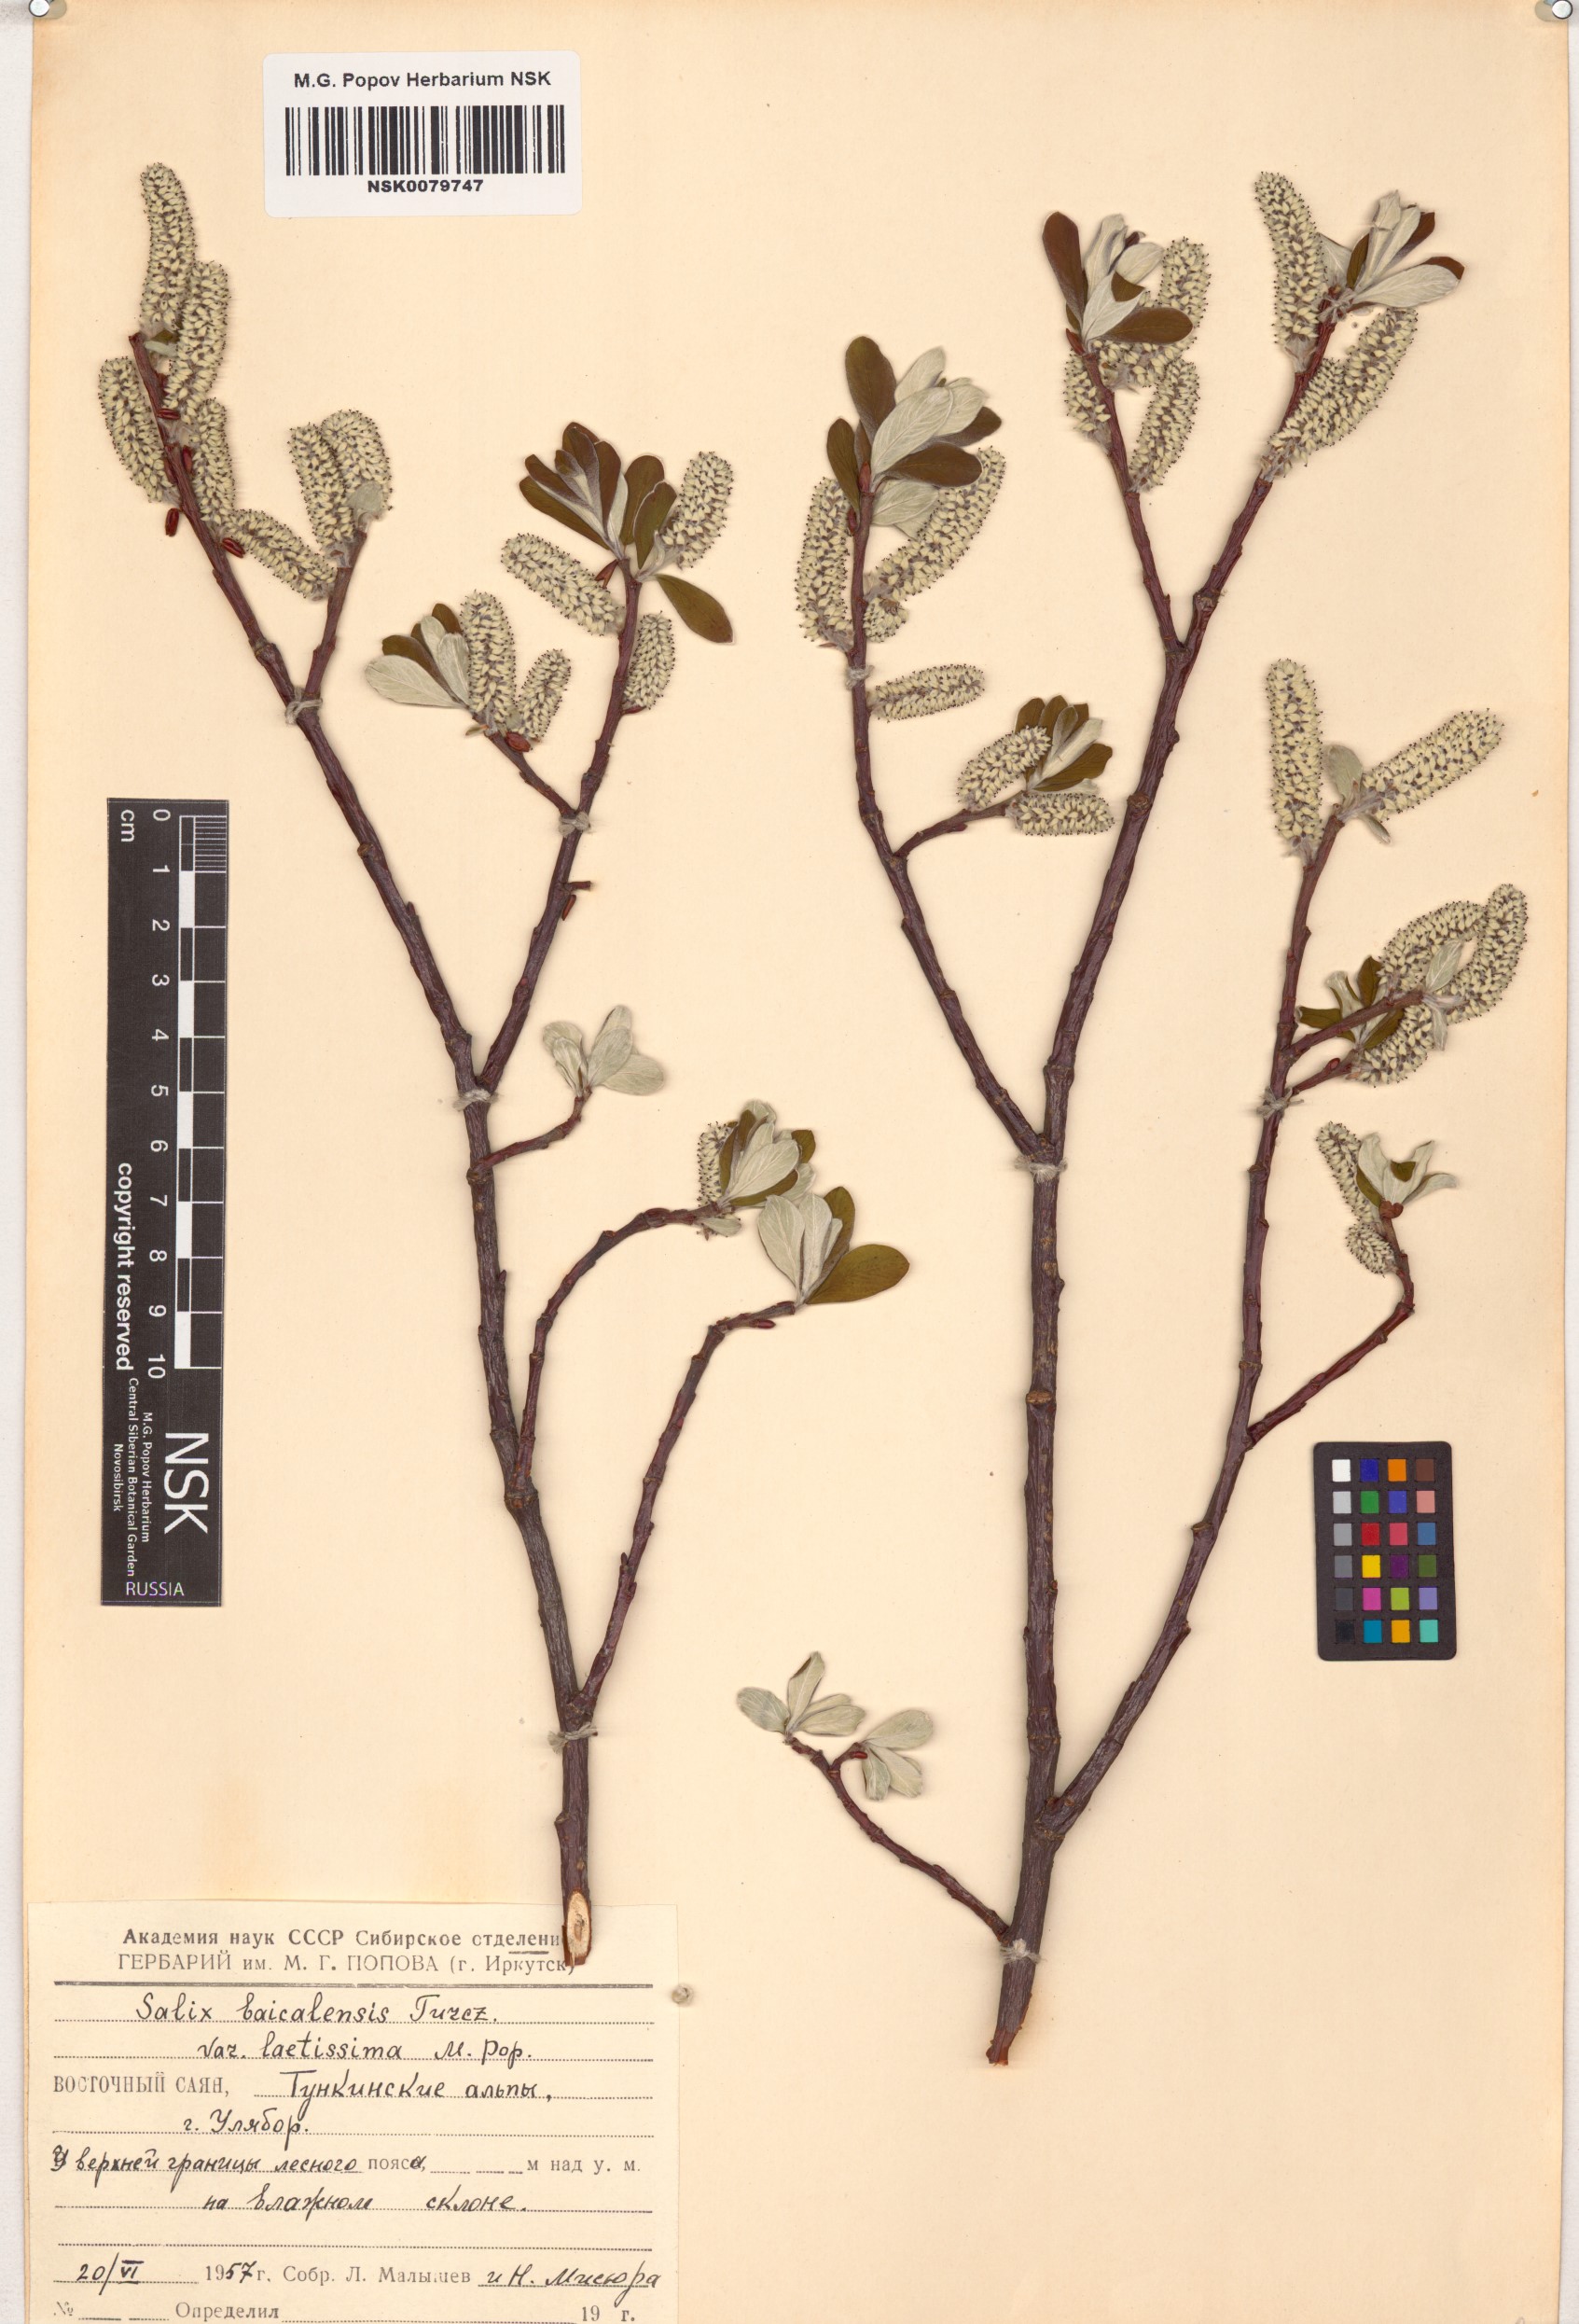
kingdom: Plantae
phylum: Tracheophyta
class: Magnoliopsida
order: Malpighiales
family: Salicaceae
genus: Salix
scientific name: Salix krylovii
